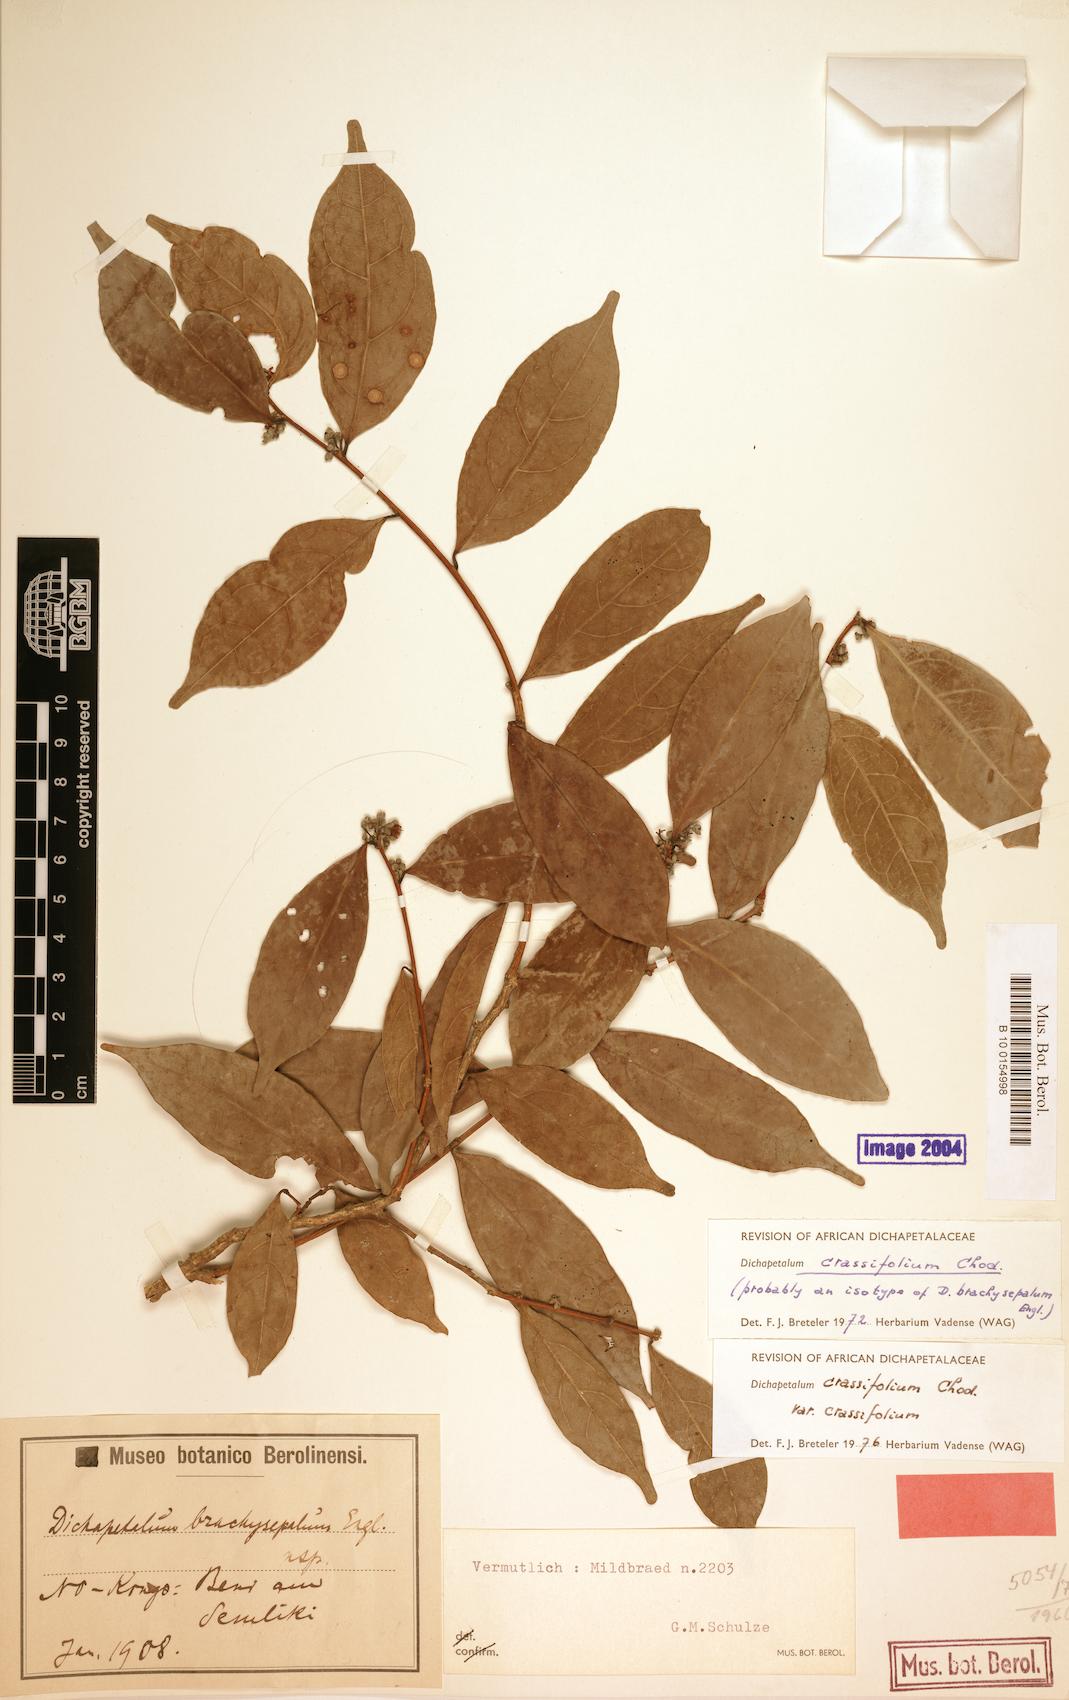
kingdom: Plantae
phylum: Tracheophyta
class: Magnoliopsida
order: Malpighiales
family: Dichapetalaceae
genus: Dichapetalum
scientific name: Dichapetalum crassifolium
